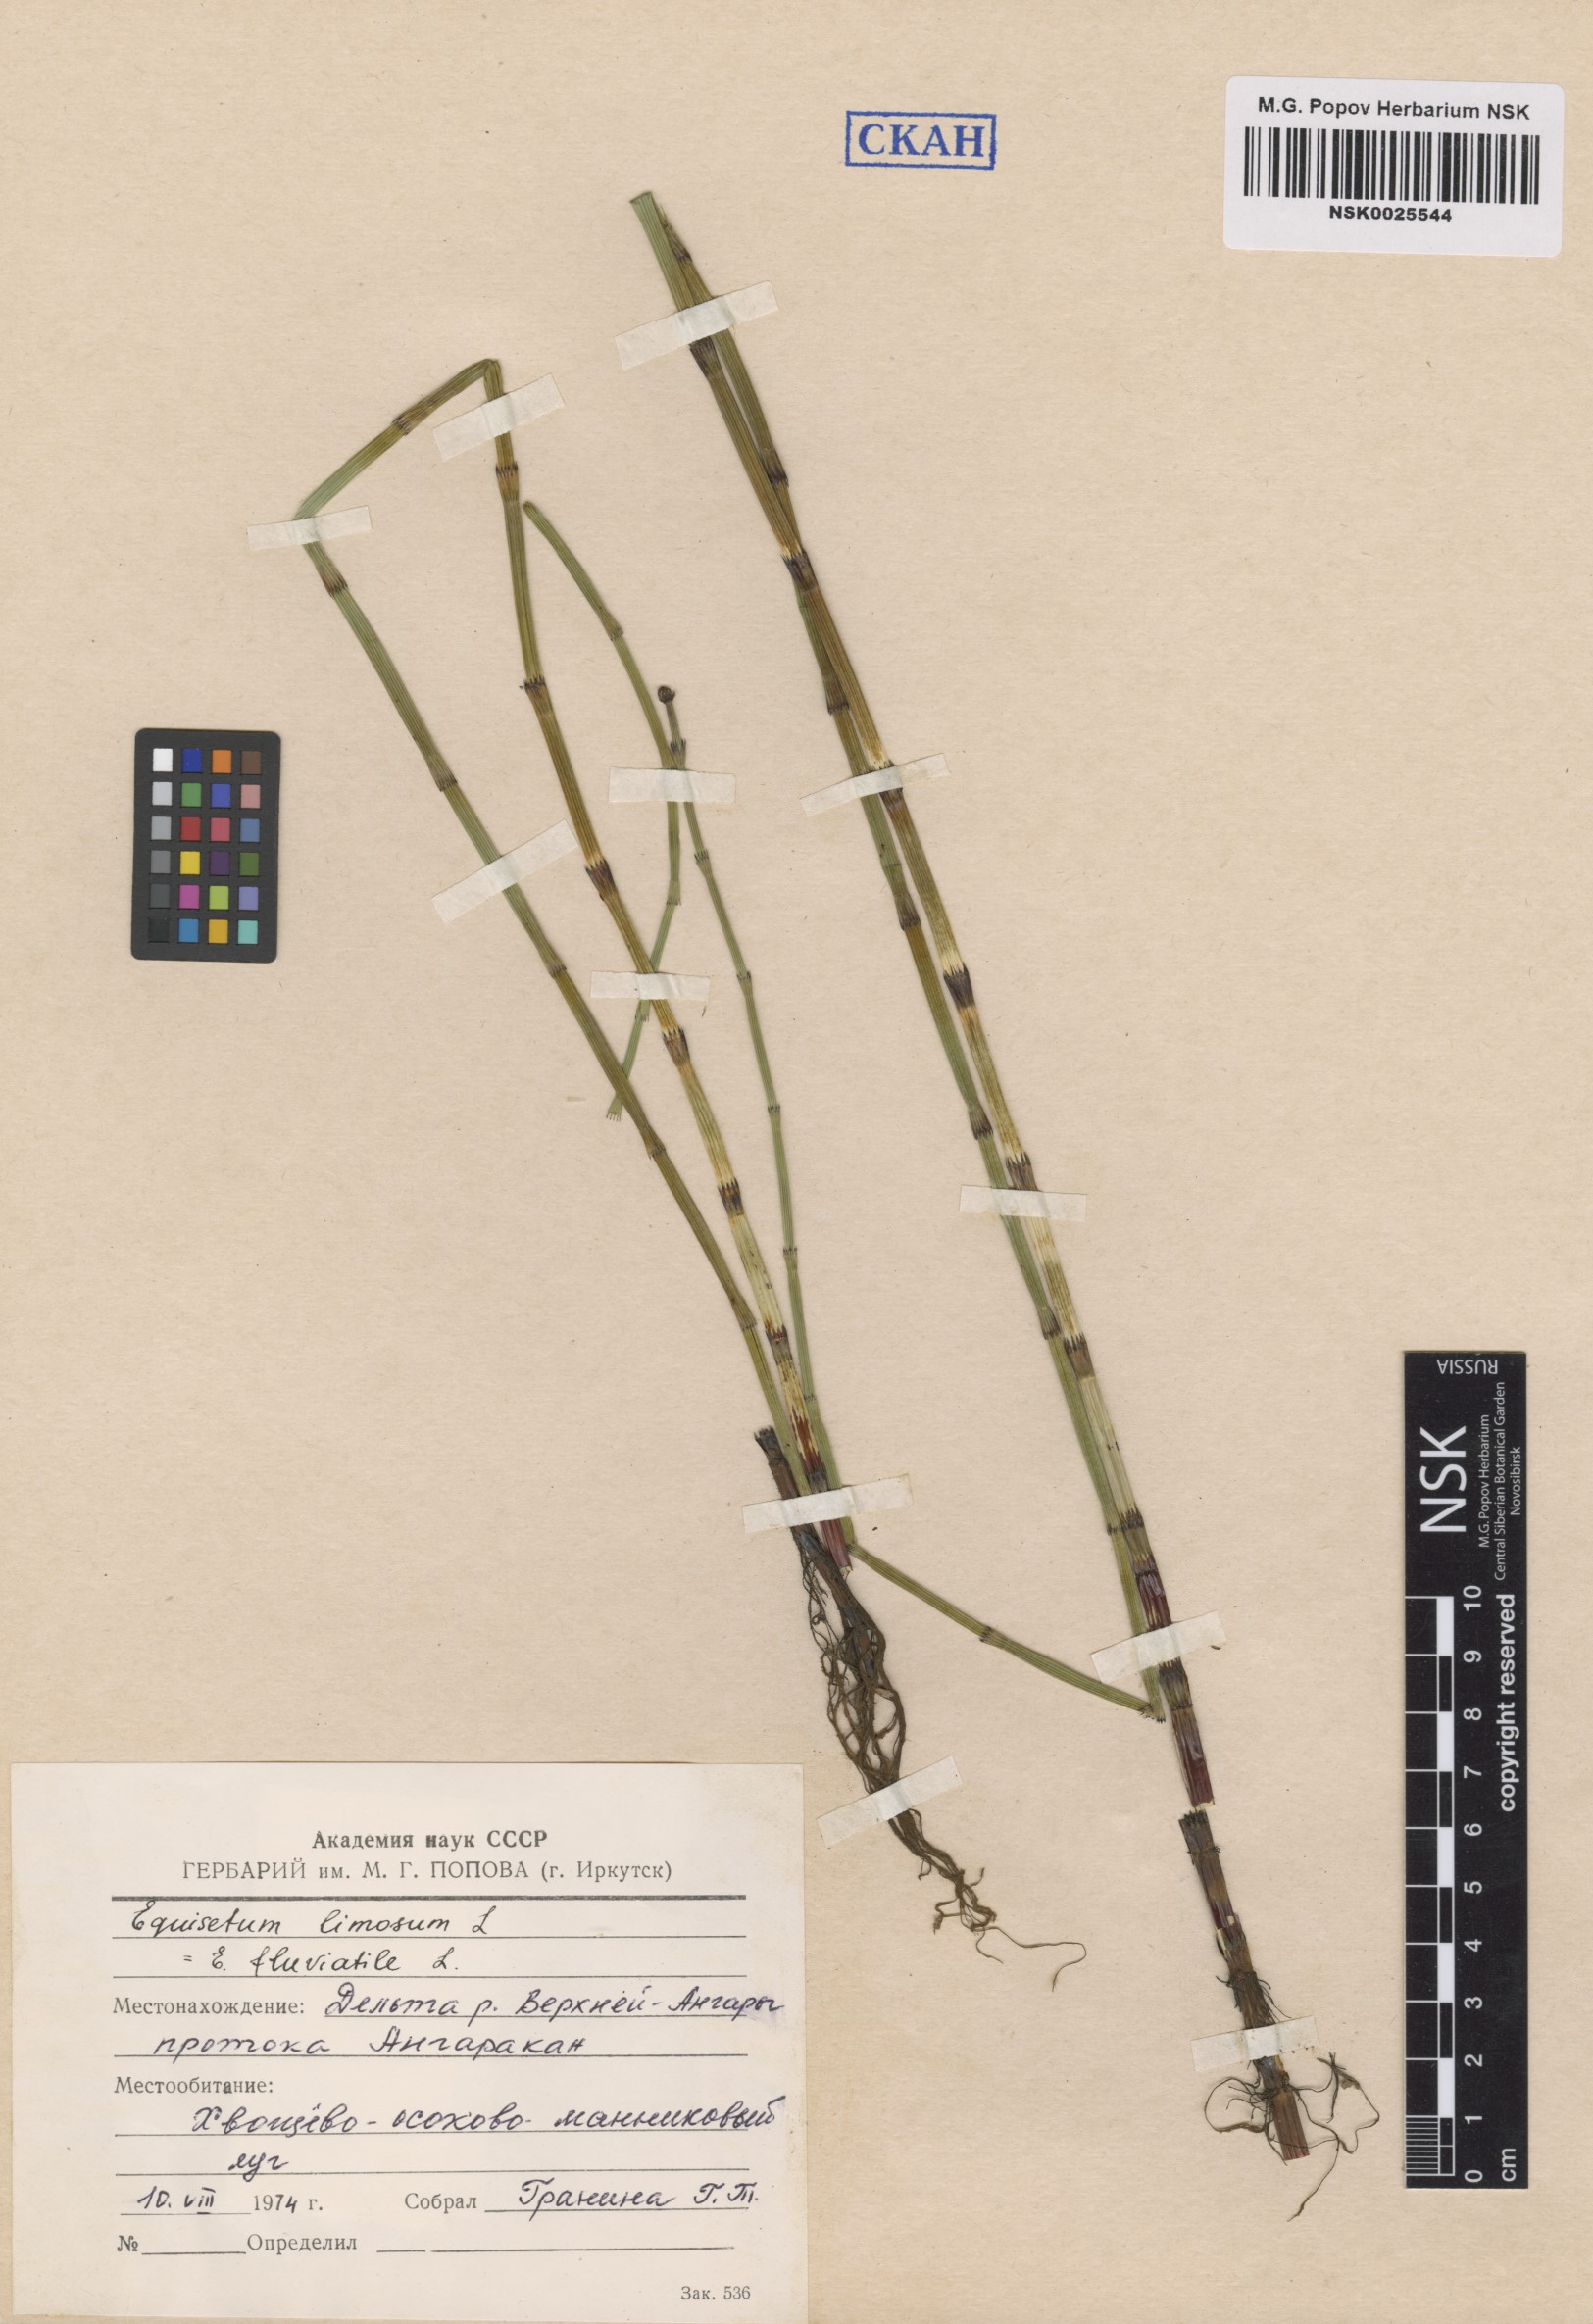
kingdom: Plantae
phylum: Tracheophyta
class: Polypodiopsida
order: Equisetales
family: Equisetaceae
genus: Equisetum
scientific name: Equisetum fluviatile
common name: Water horsetail
